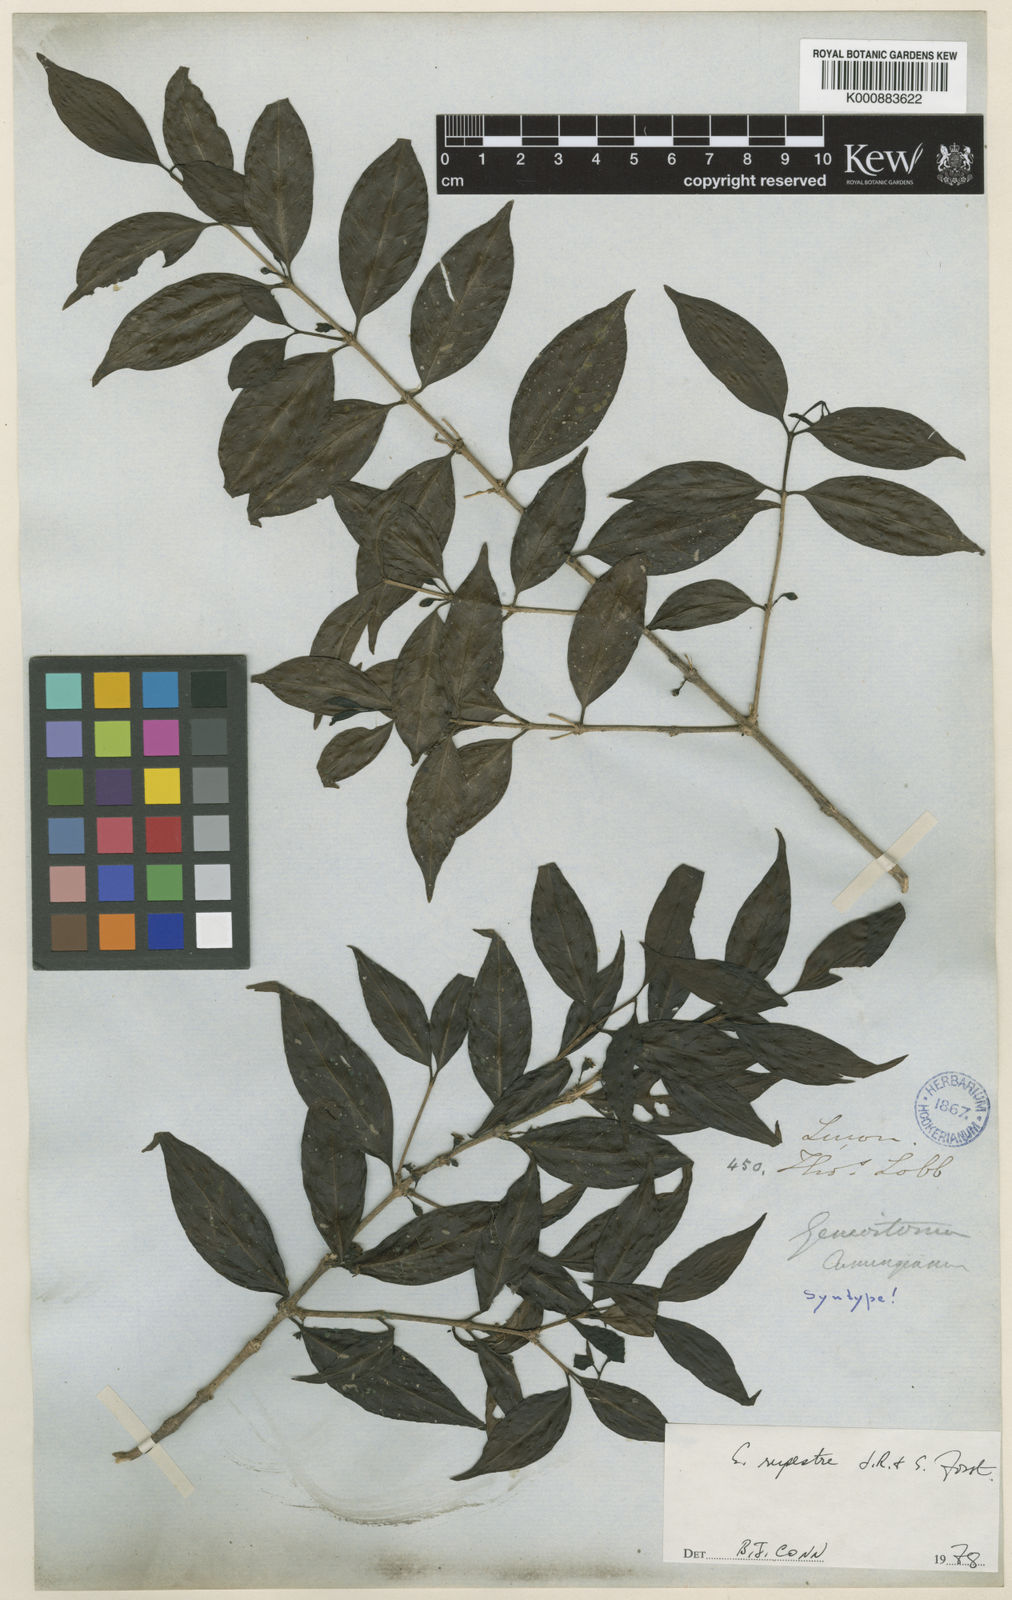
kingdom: Plantae
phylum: Tracheophyta
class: Magnoliopsida
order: Gentianales
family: Loganiaceae
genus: Geniostoma
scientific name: Geniostoma rupestre
